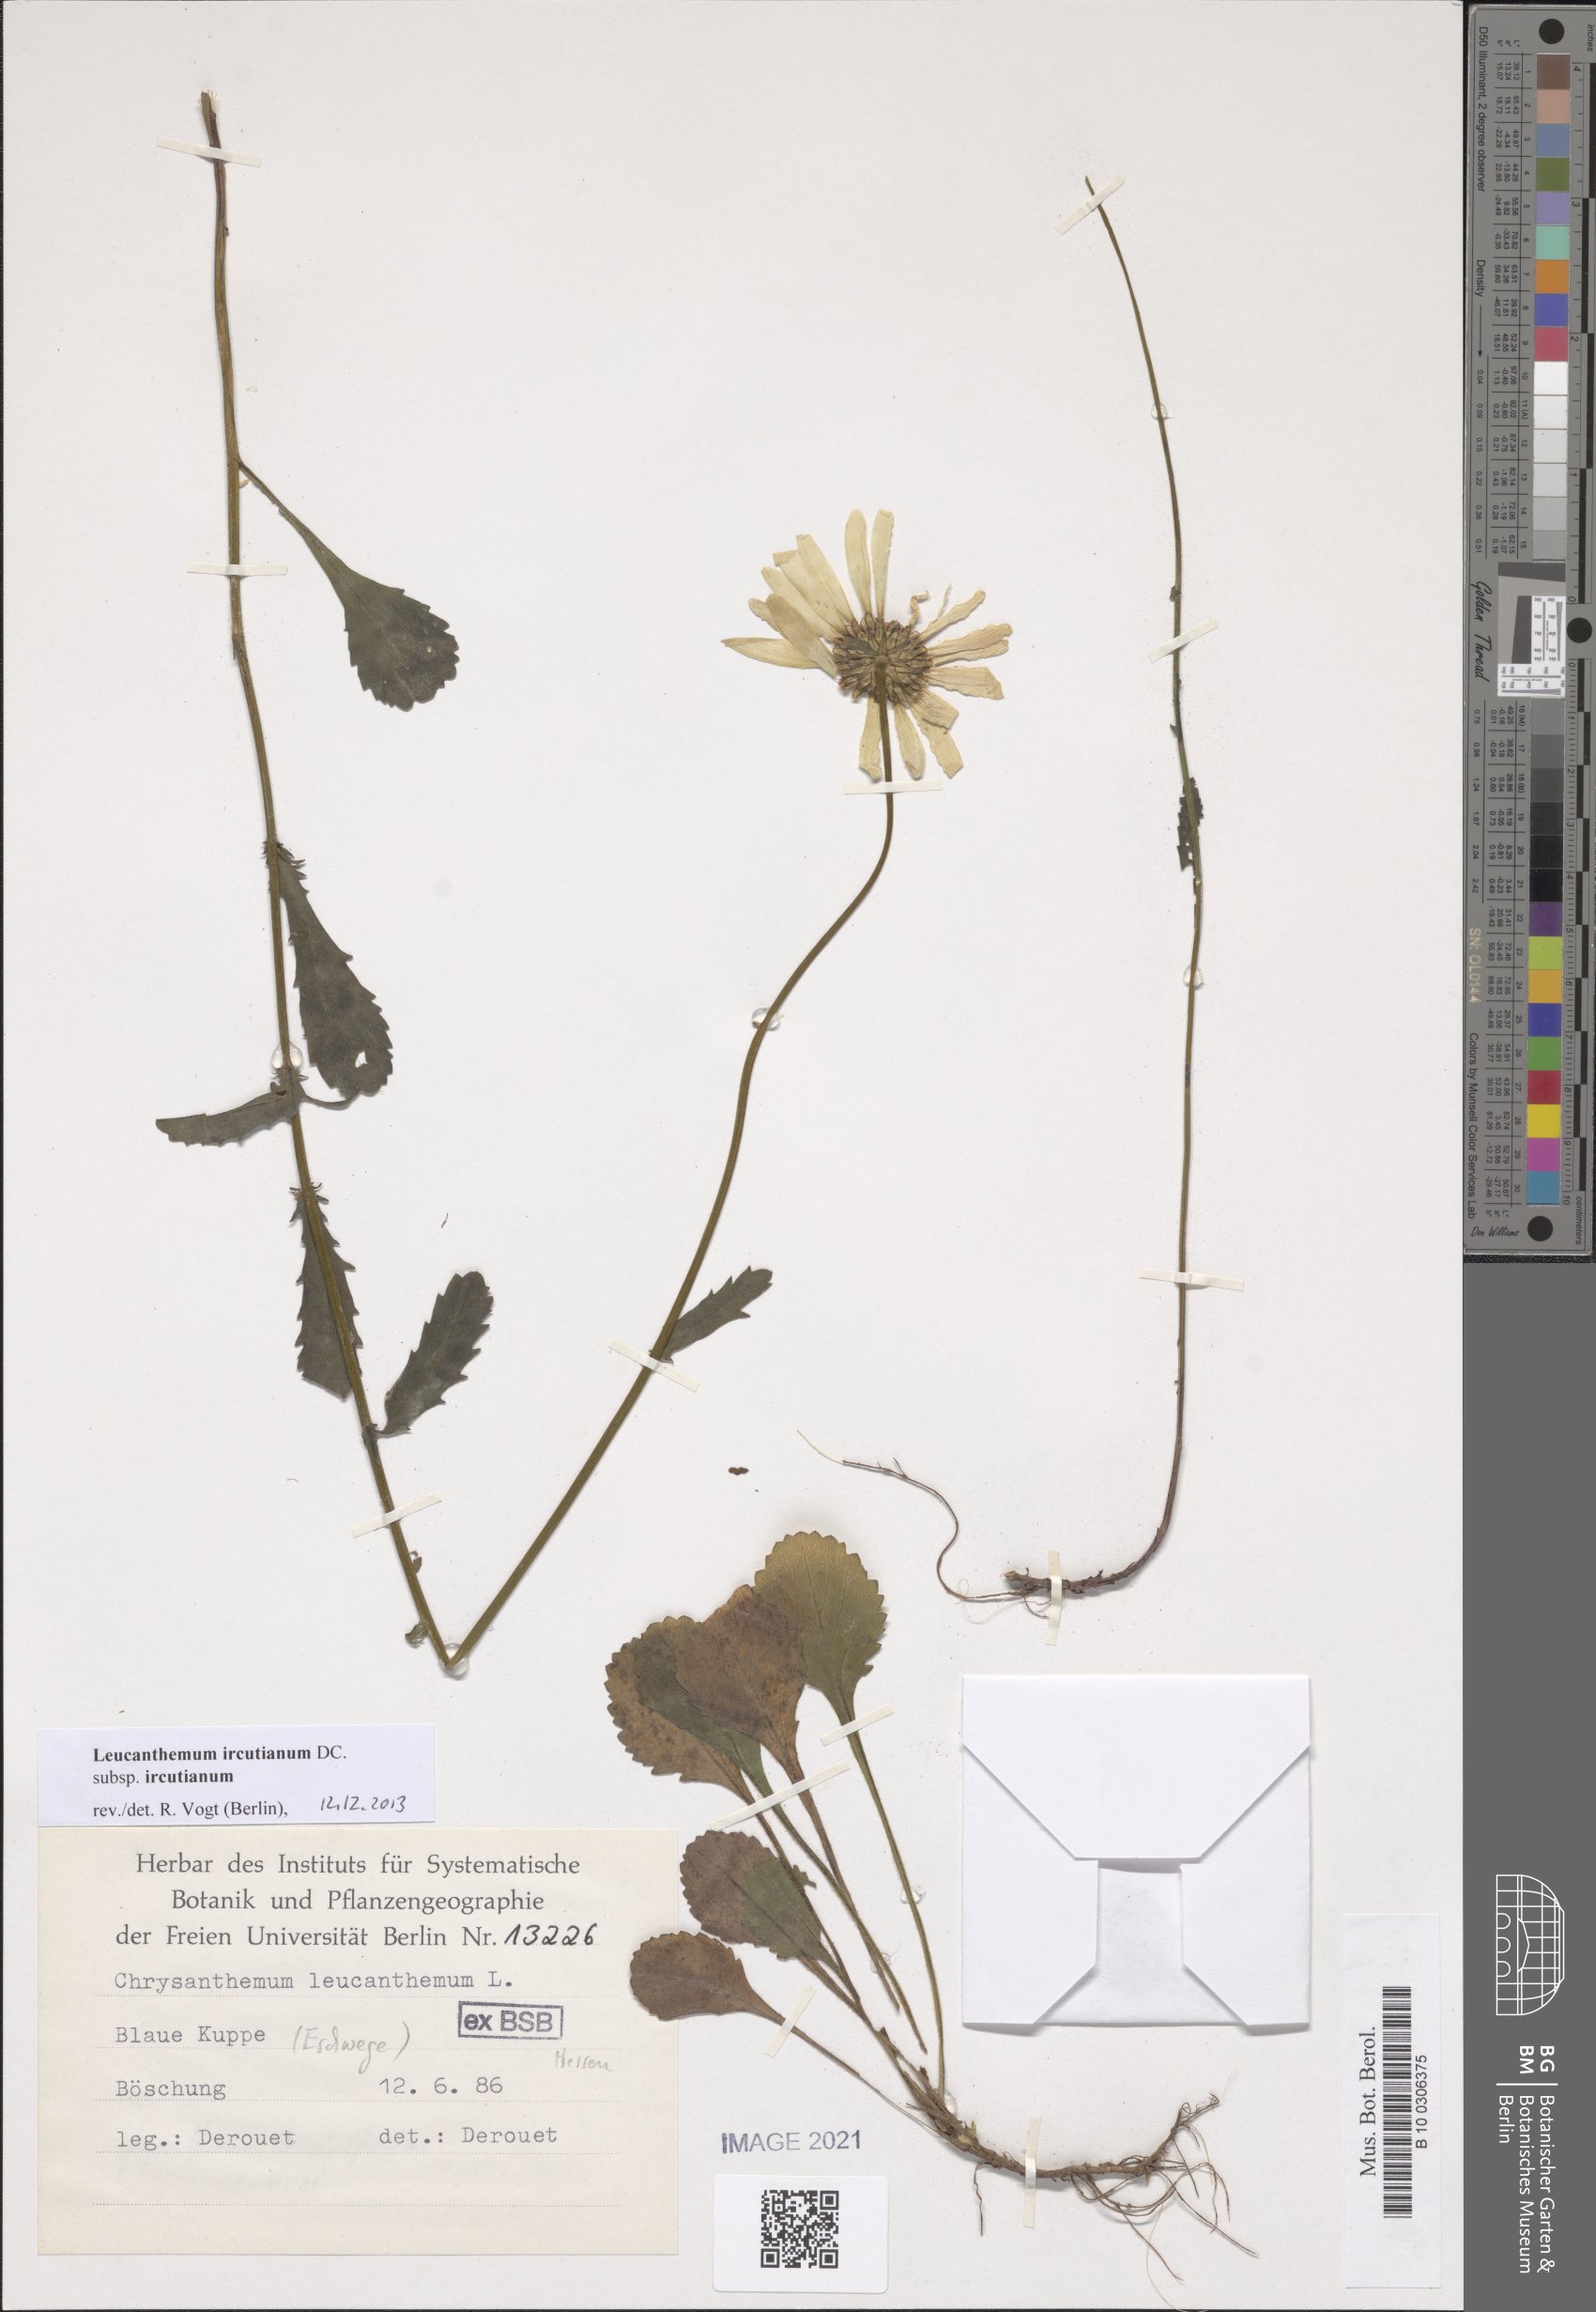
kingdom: Plantae
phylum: Tracheophyta
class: Magnoliopsida
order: Asterales
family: Asteraceae
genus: Leucanthemum
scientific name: Leucanthemum ircutianum
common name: Daisy
